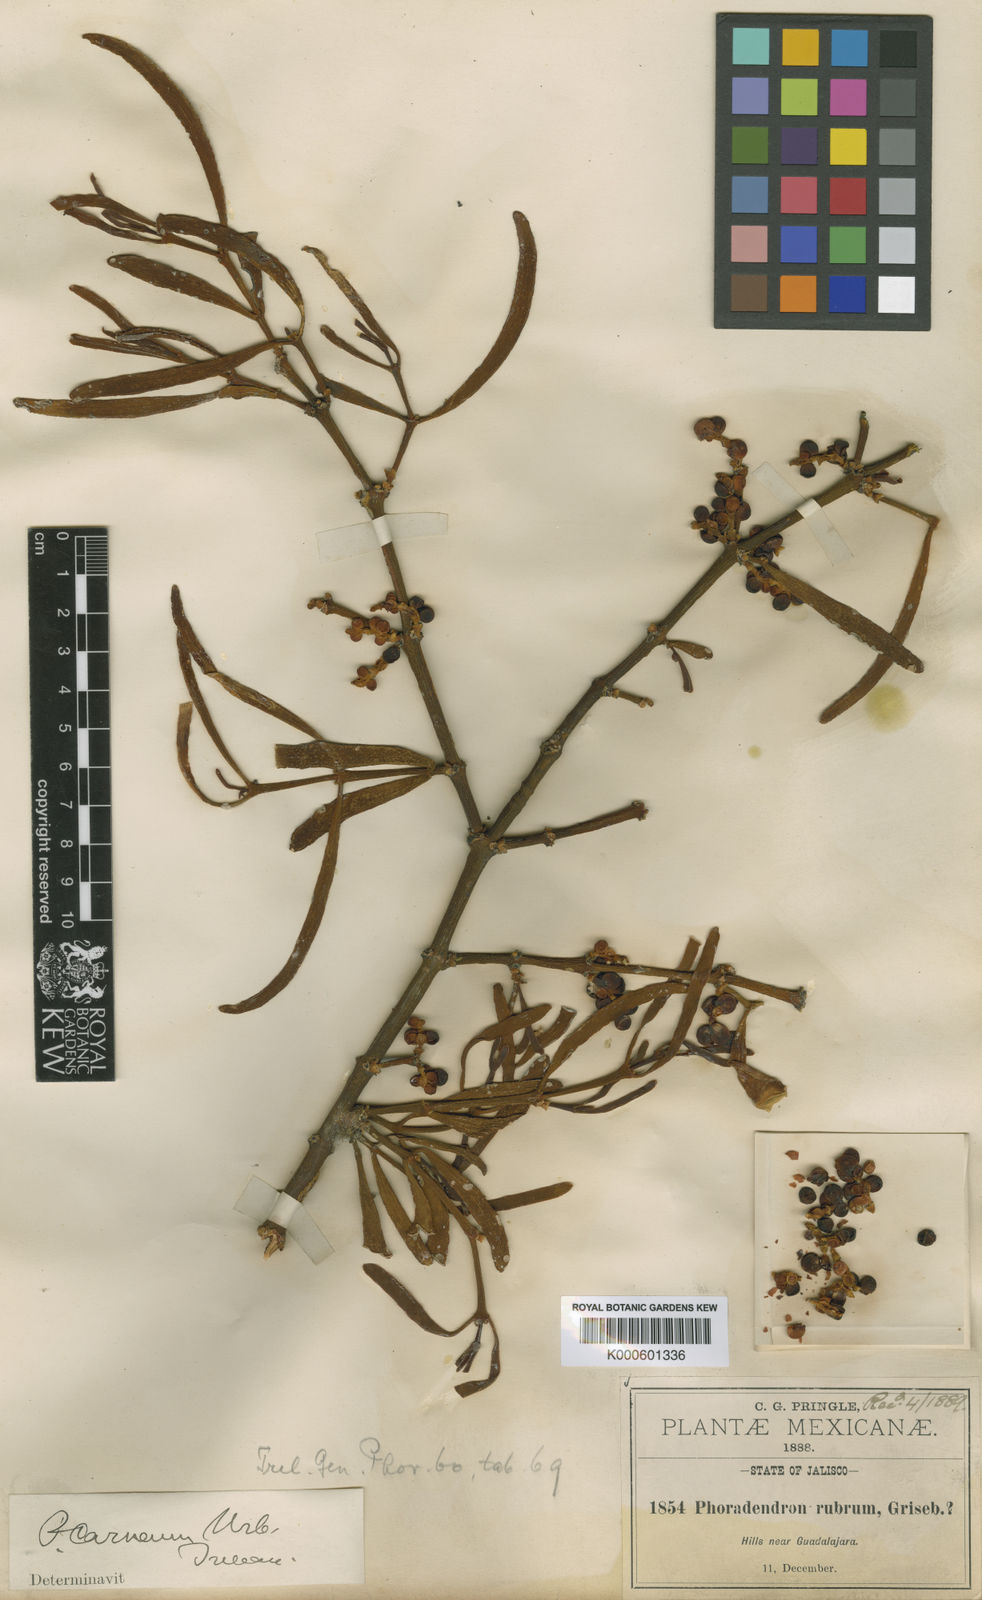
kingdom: Plantae
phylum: Tracheophyta
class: Magnoliopsida
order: Santalales
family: Viscaceae
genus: Phoradendron
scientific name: Phoradendron carneum
